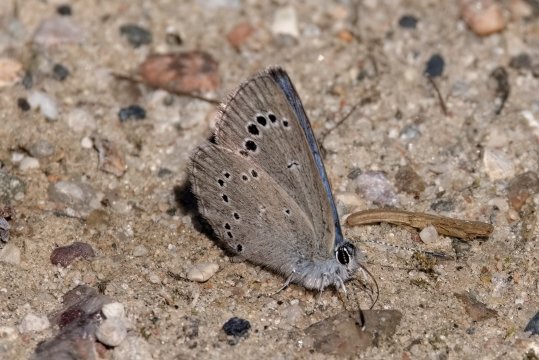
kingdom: Animalia
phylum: Arthropoda
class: Insecta
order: Lepidoptera
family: Lycaenidae
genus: Glaucopsyche
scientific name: Glaucopsyche lygdamus
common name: Silvery Blue
